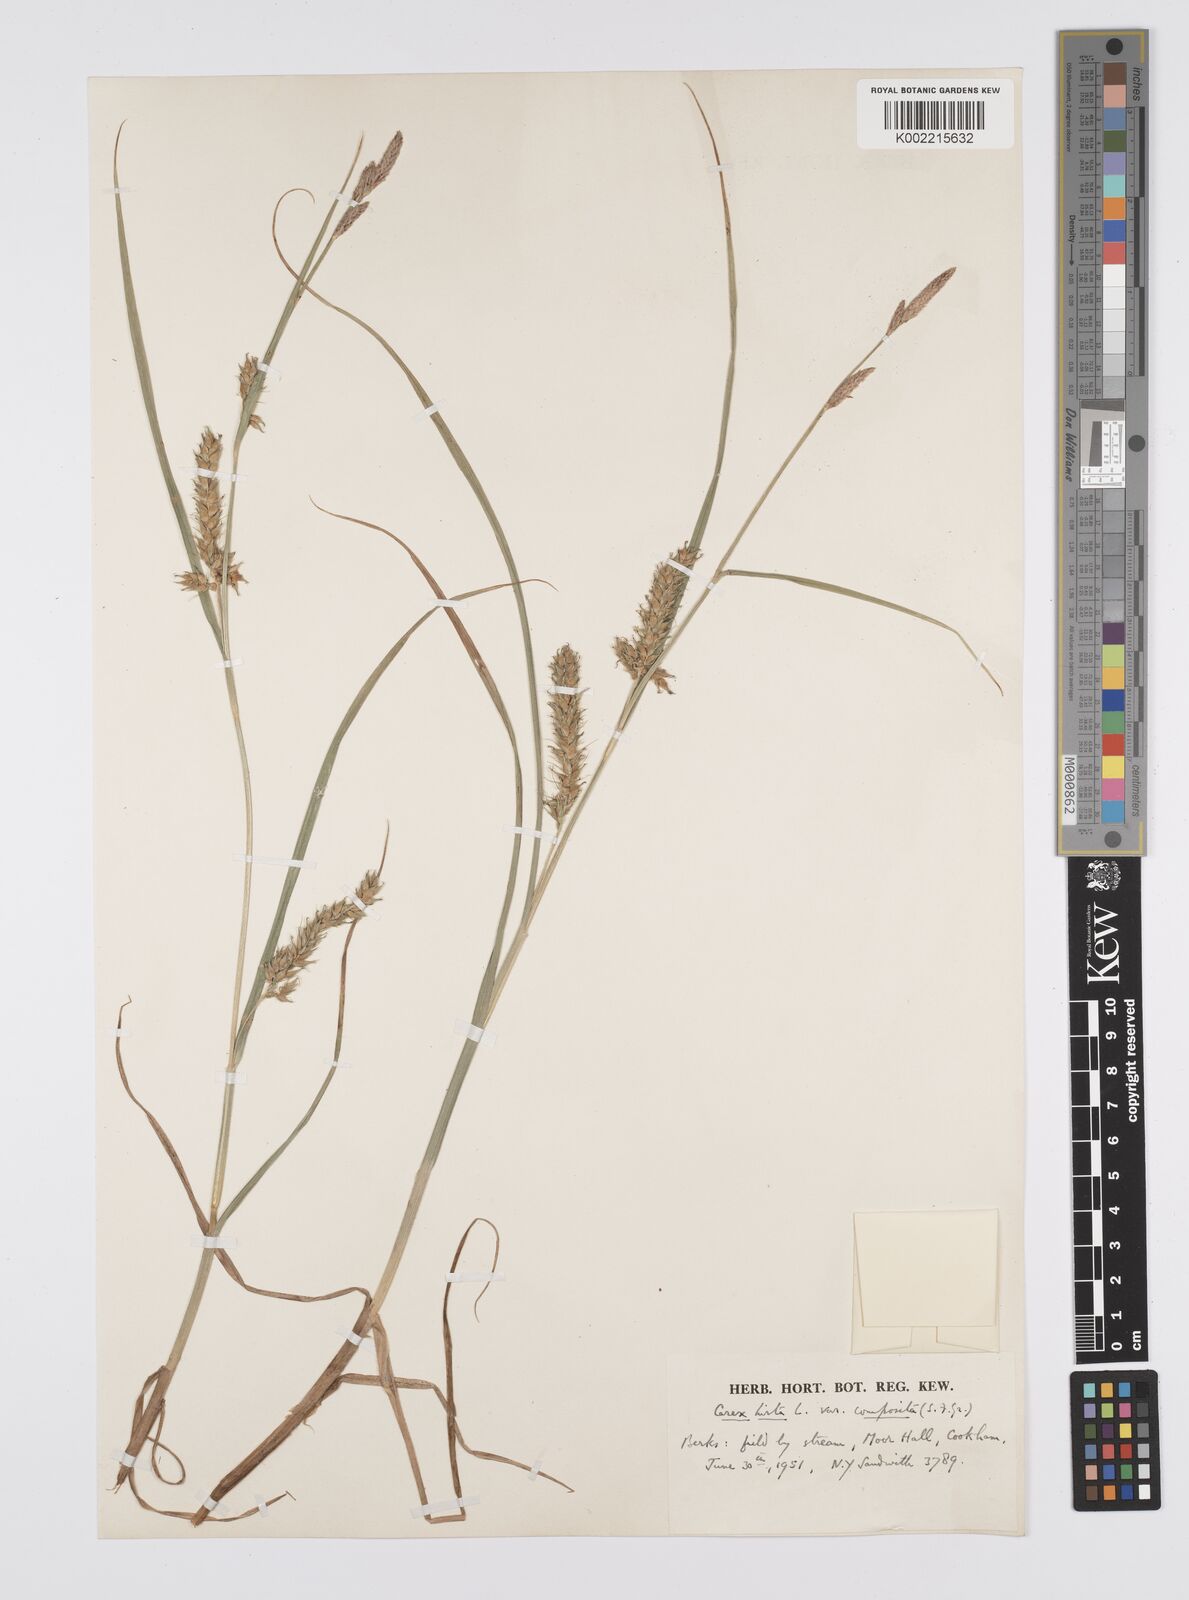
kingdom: Plantae
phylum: Tracheophyta
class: Liliopsida
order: Poales
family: Cyperaceae
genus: Carex
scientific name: Carex hirta
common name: Hairy sedge
